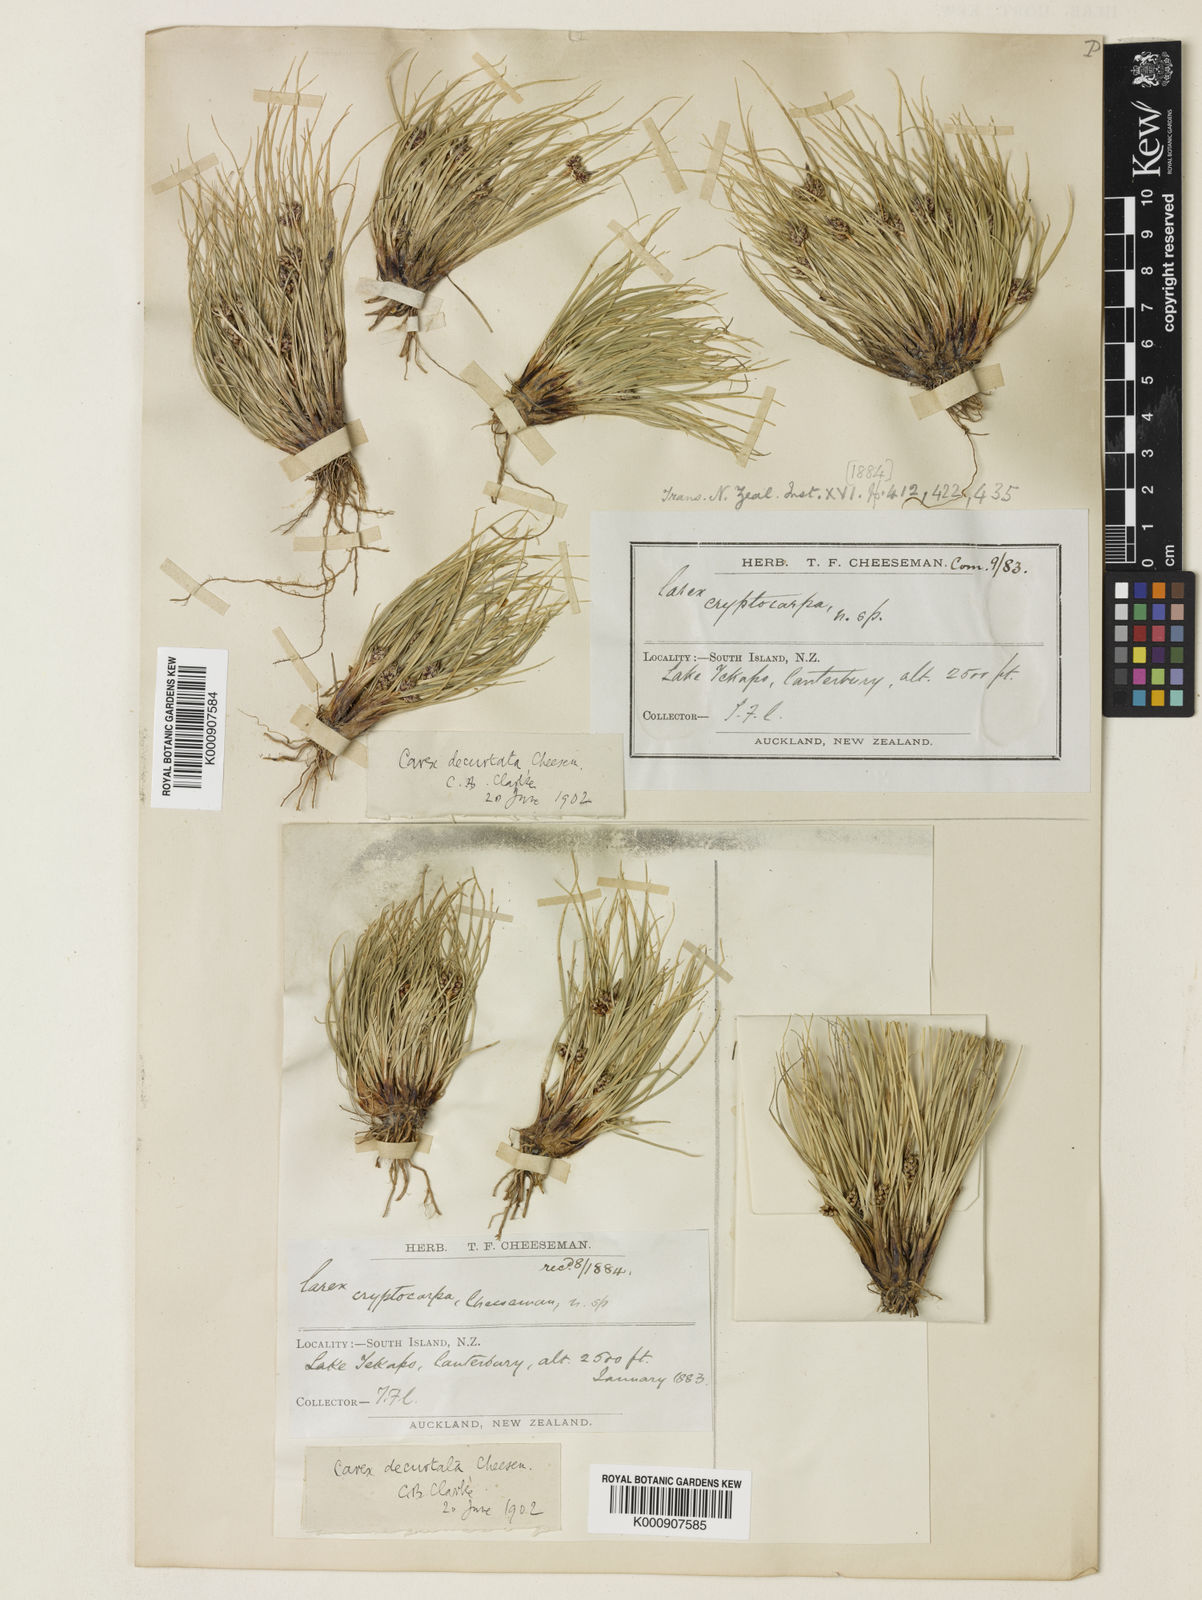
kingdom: Plantae
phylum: Tracheophyta
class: Liliopsida
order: Poales
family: Cyperaceae
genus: Carex
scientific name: Carex decurtata
